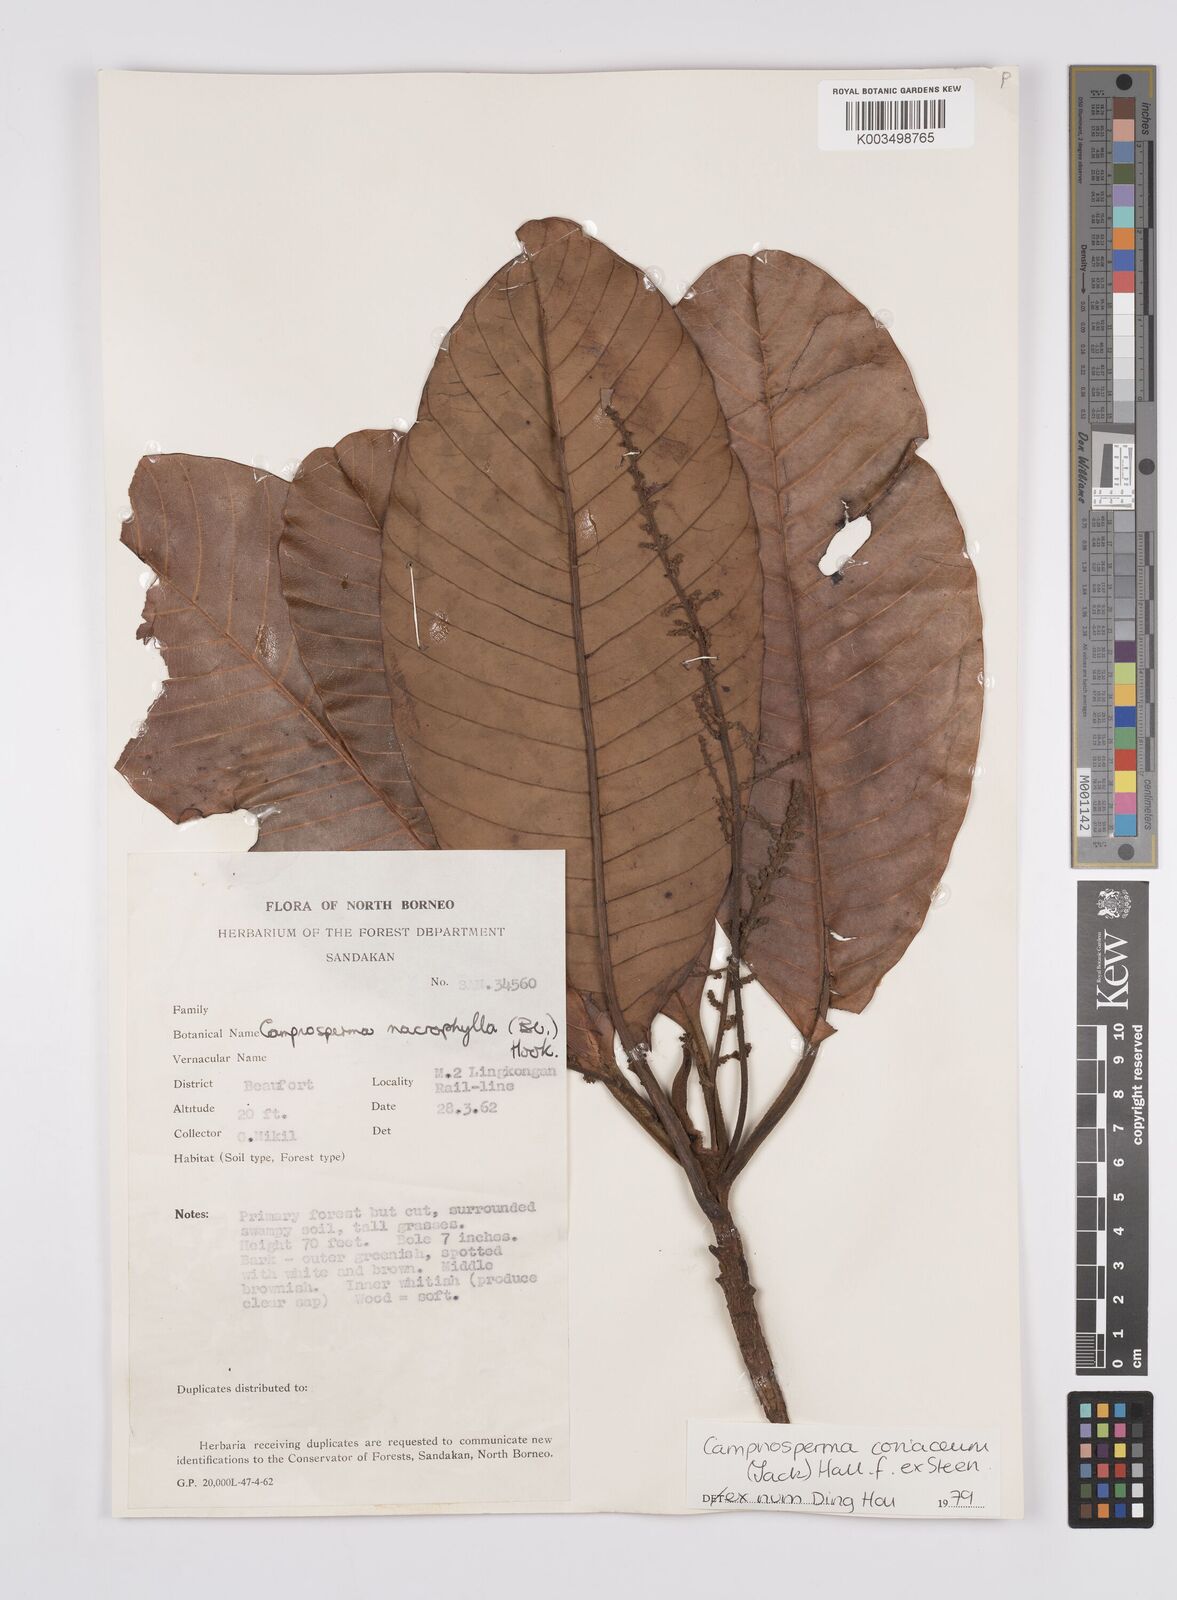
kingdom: Plantae
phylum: Tracheophyta
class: Magnoliopsida
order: Sapindales
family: Anacardiaceae
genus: Campnosperma
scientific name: Campnosperma coriaceum
